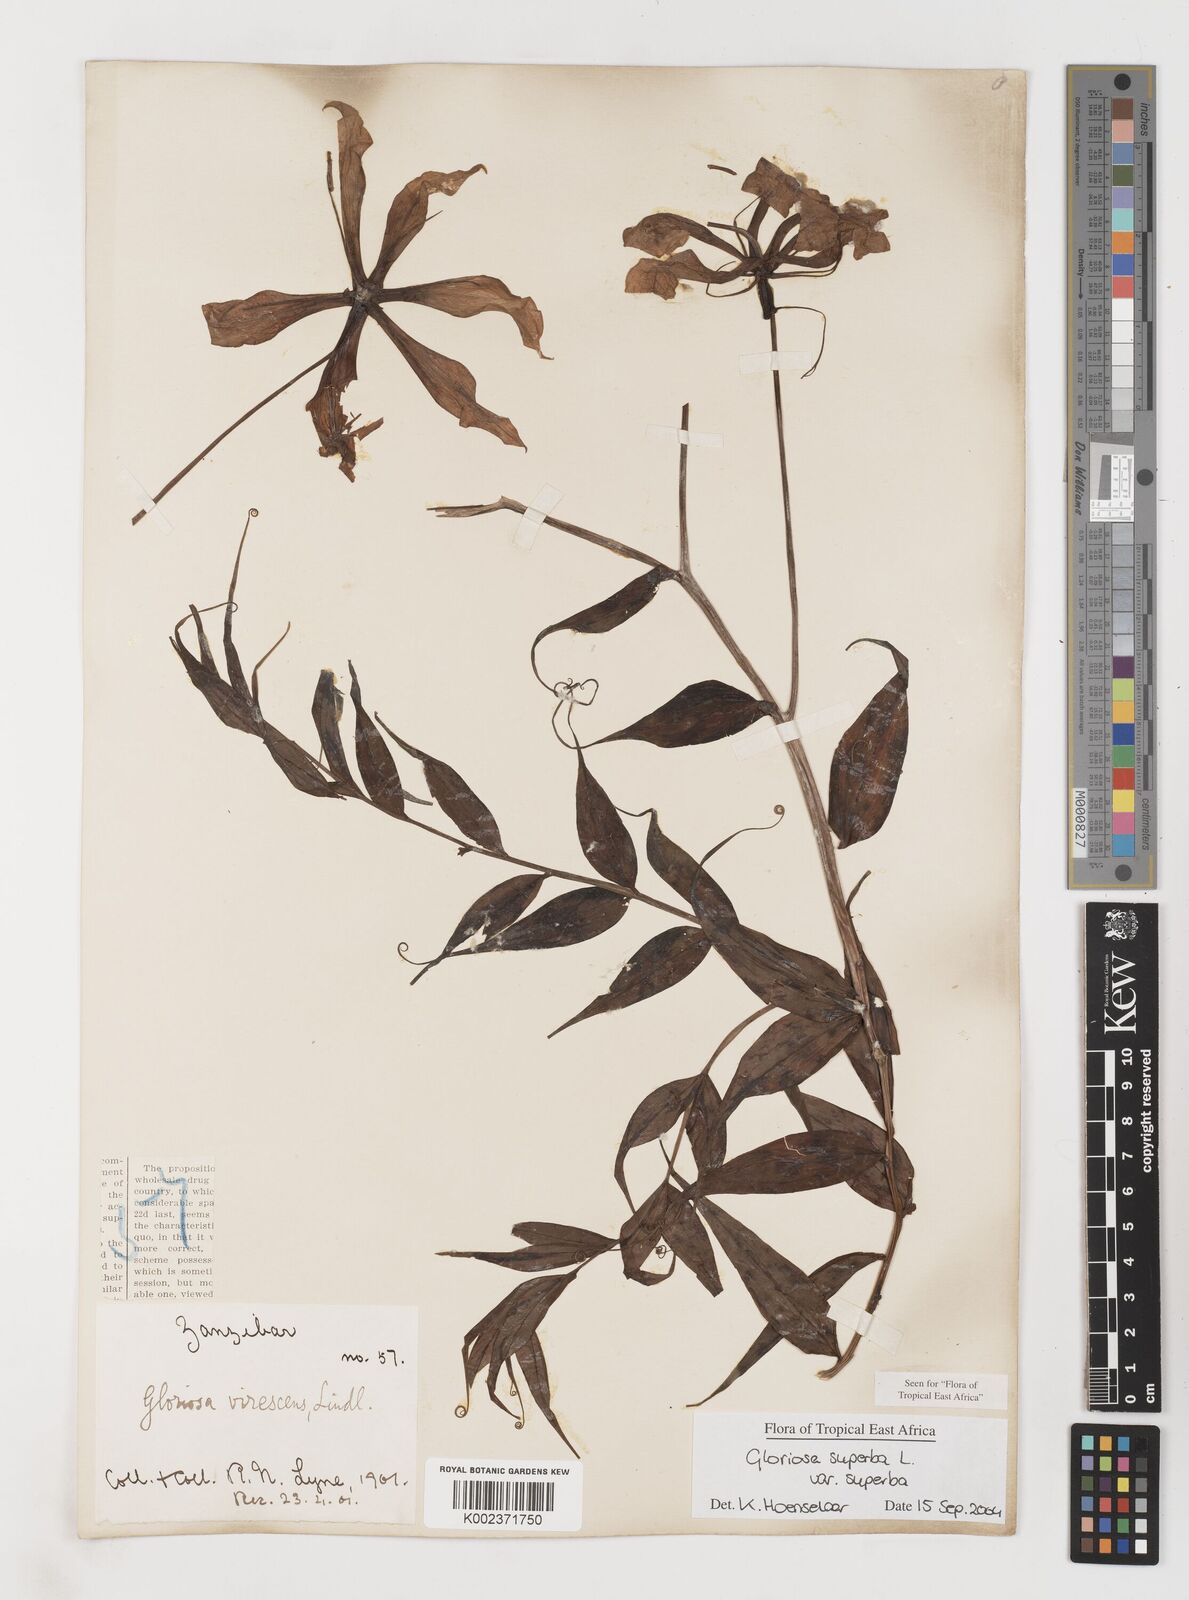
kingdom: Plantae
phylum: Tracheophyta
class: Liliopsida
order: Liliales
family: Colchicaceae
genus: Gloriosa
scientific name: Gloriosa simplex
